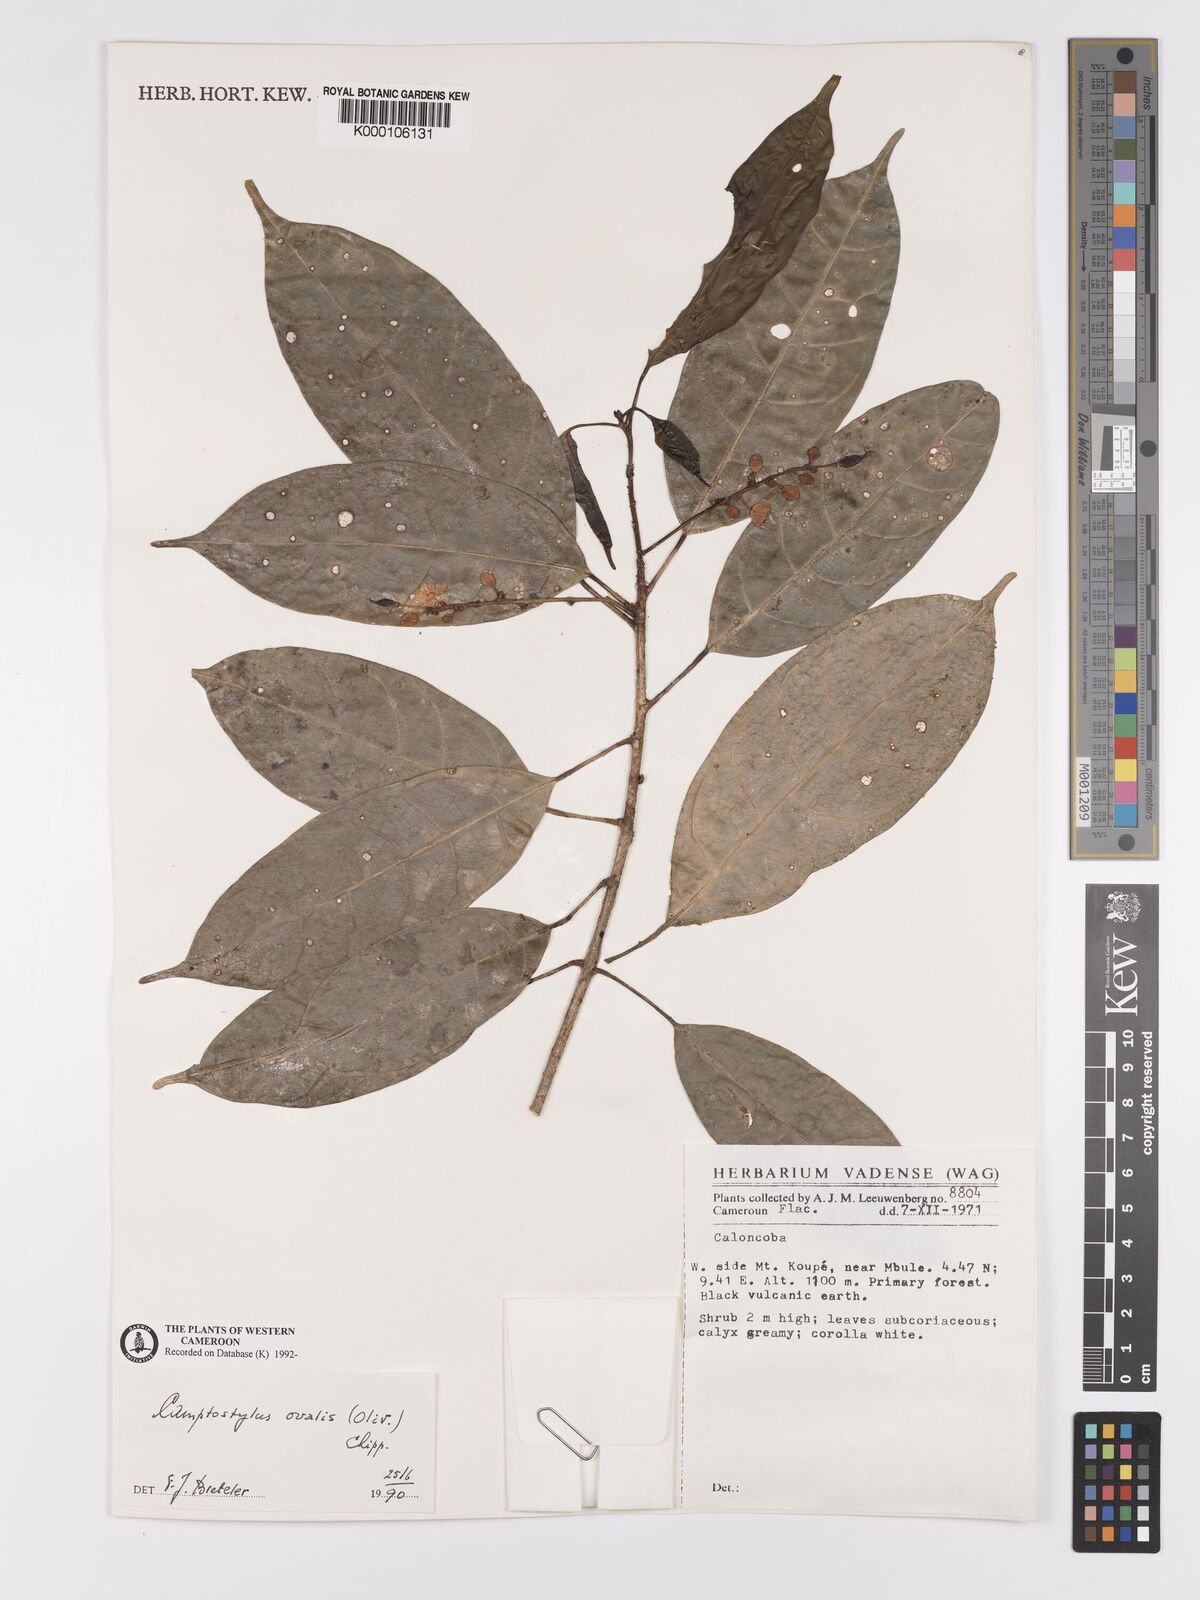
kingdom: Plantae
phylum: Tracheophyta
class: Magnoliopsida
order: Malpighiales
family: Achariaceae
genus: Camptostylus
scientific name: Camptostylus ovalis
